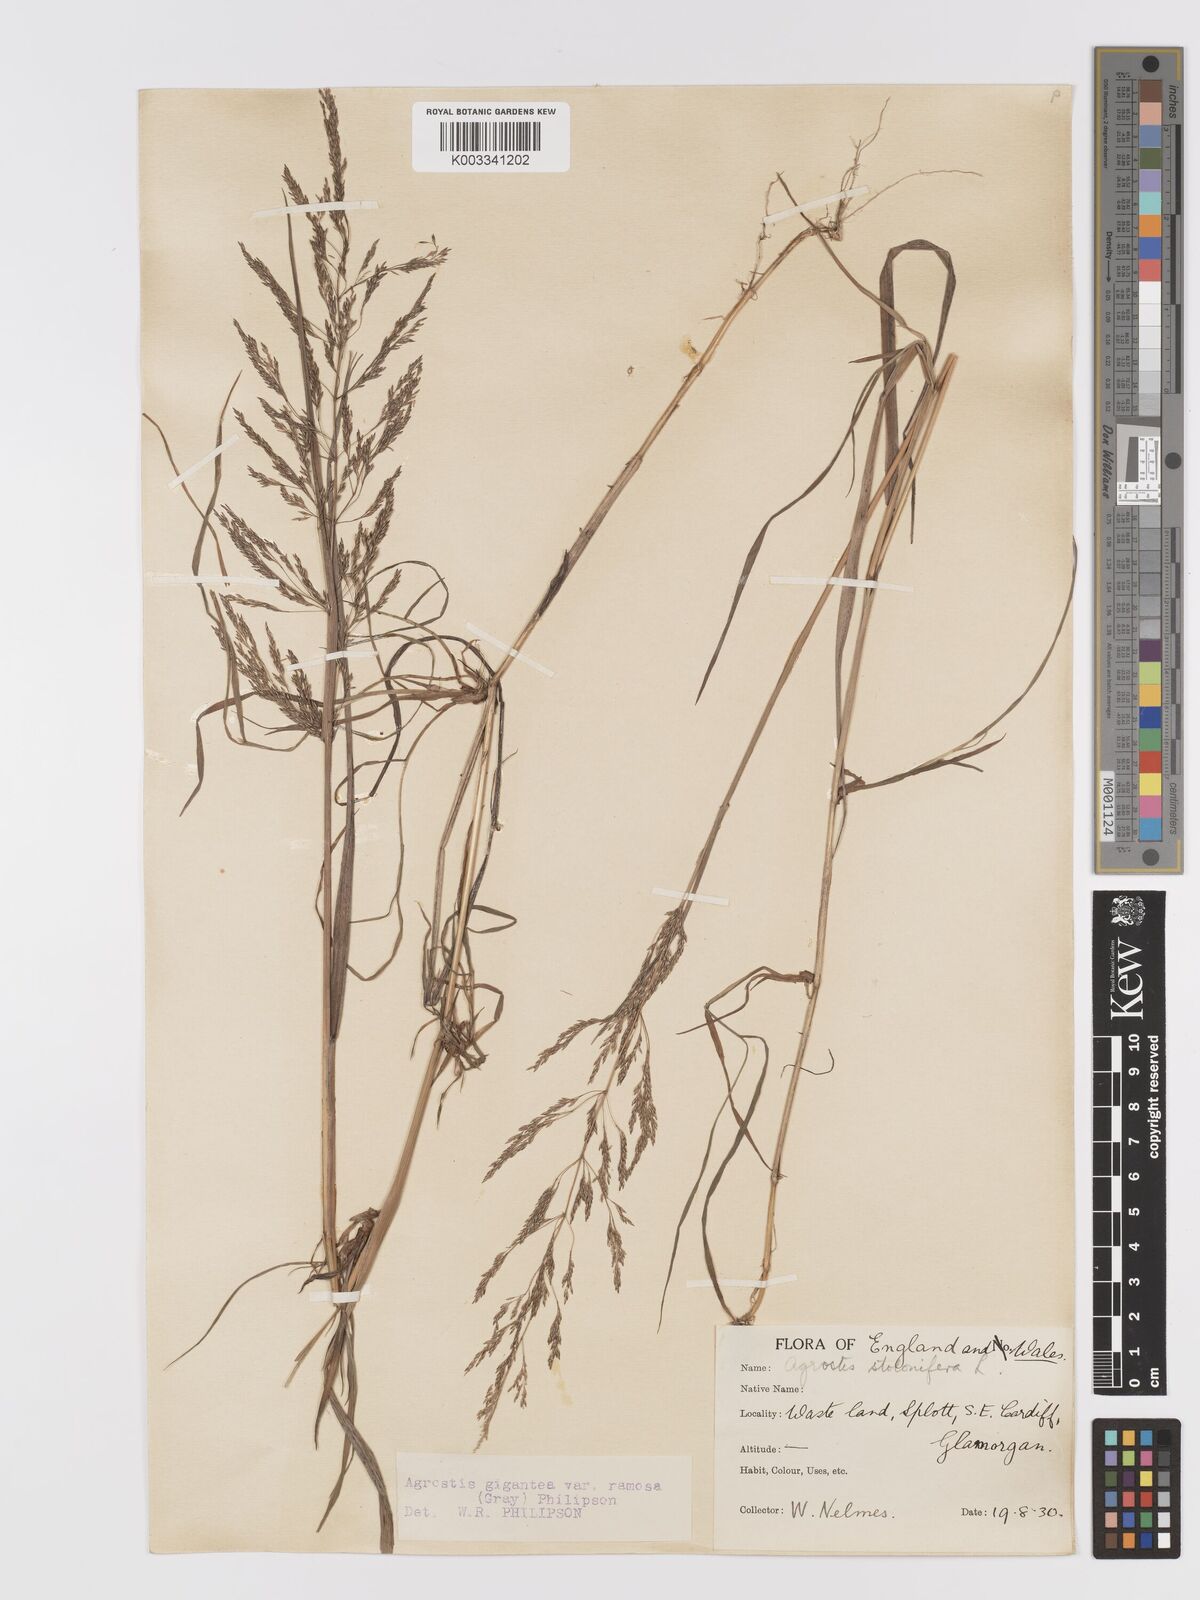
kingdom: Plantae
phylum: Tracheophyta
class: Liliopsida
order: Poales
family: Poaceae
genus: Agrostis
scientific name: Agrostis gigantea
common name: Black bent
